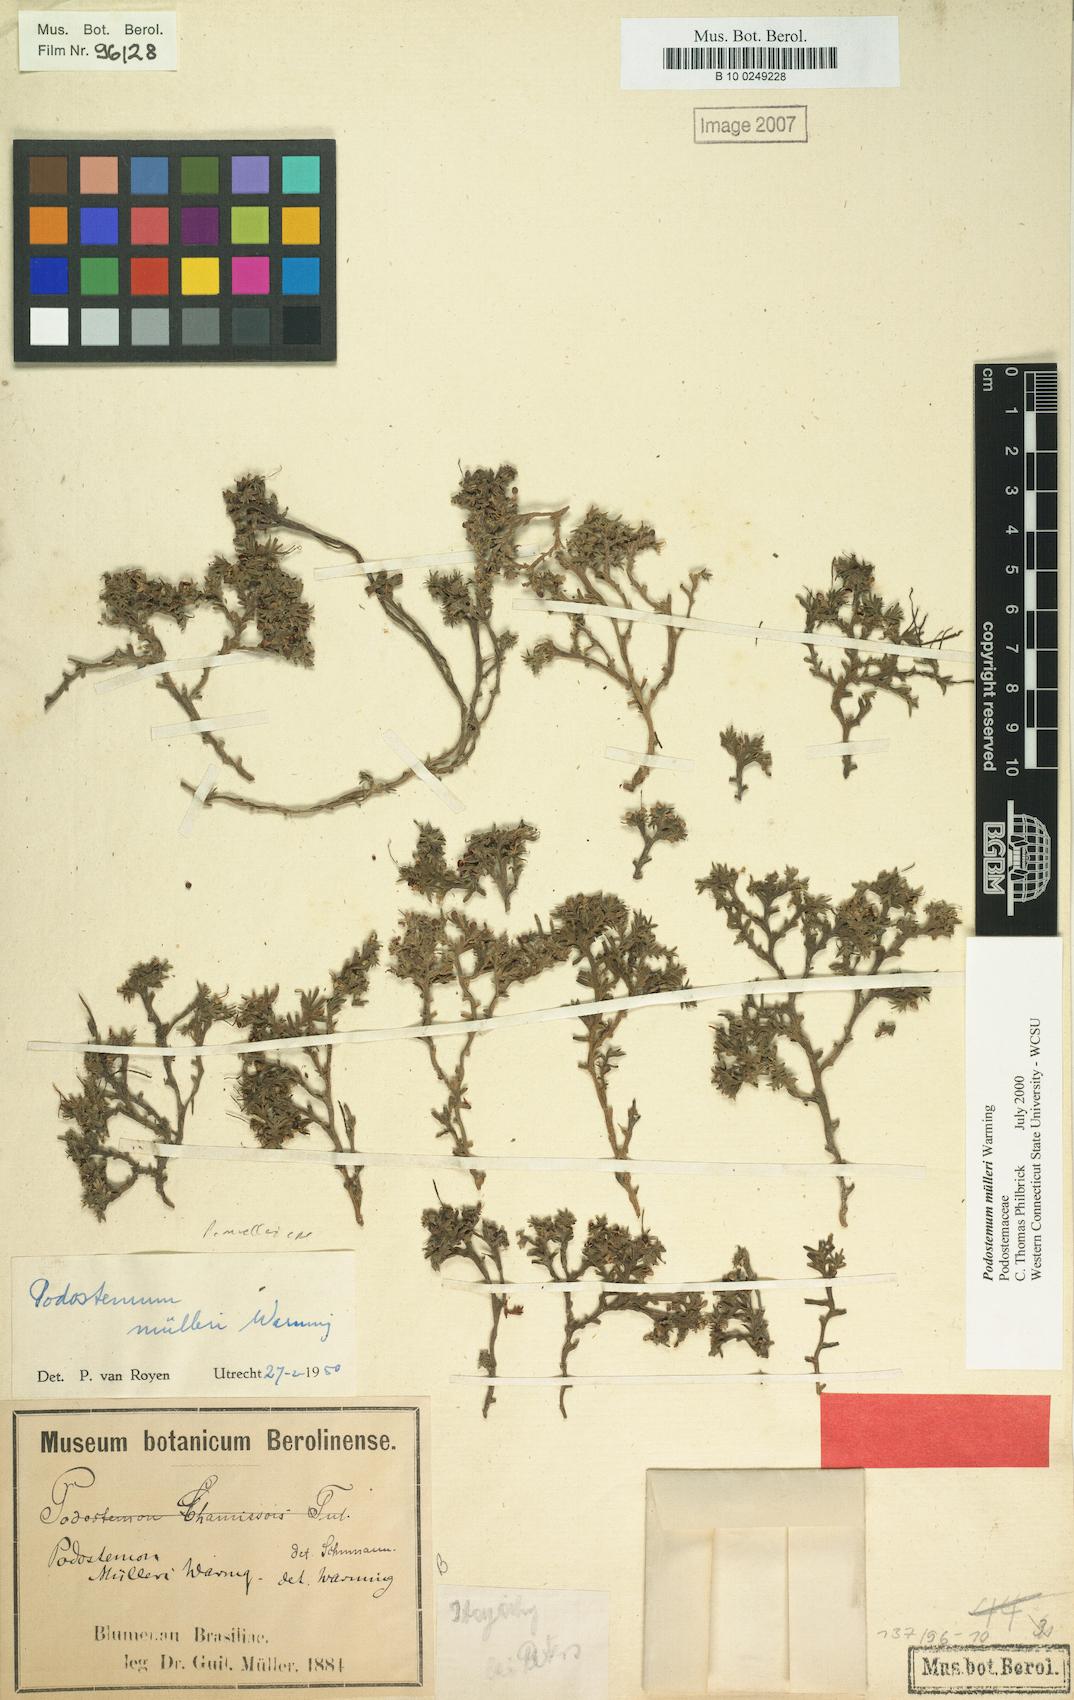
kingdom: Plantae
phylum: Tracheophyta
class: Magnoliopsida
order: Malpighiales
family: Podostemaceae
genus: Podostemum
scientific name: Podostemum muelleri
